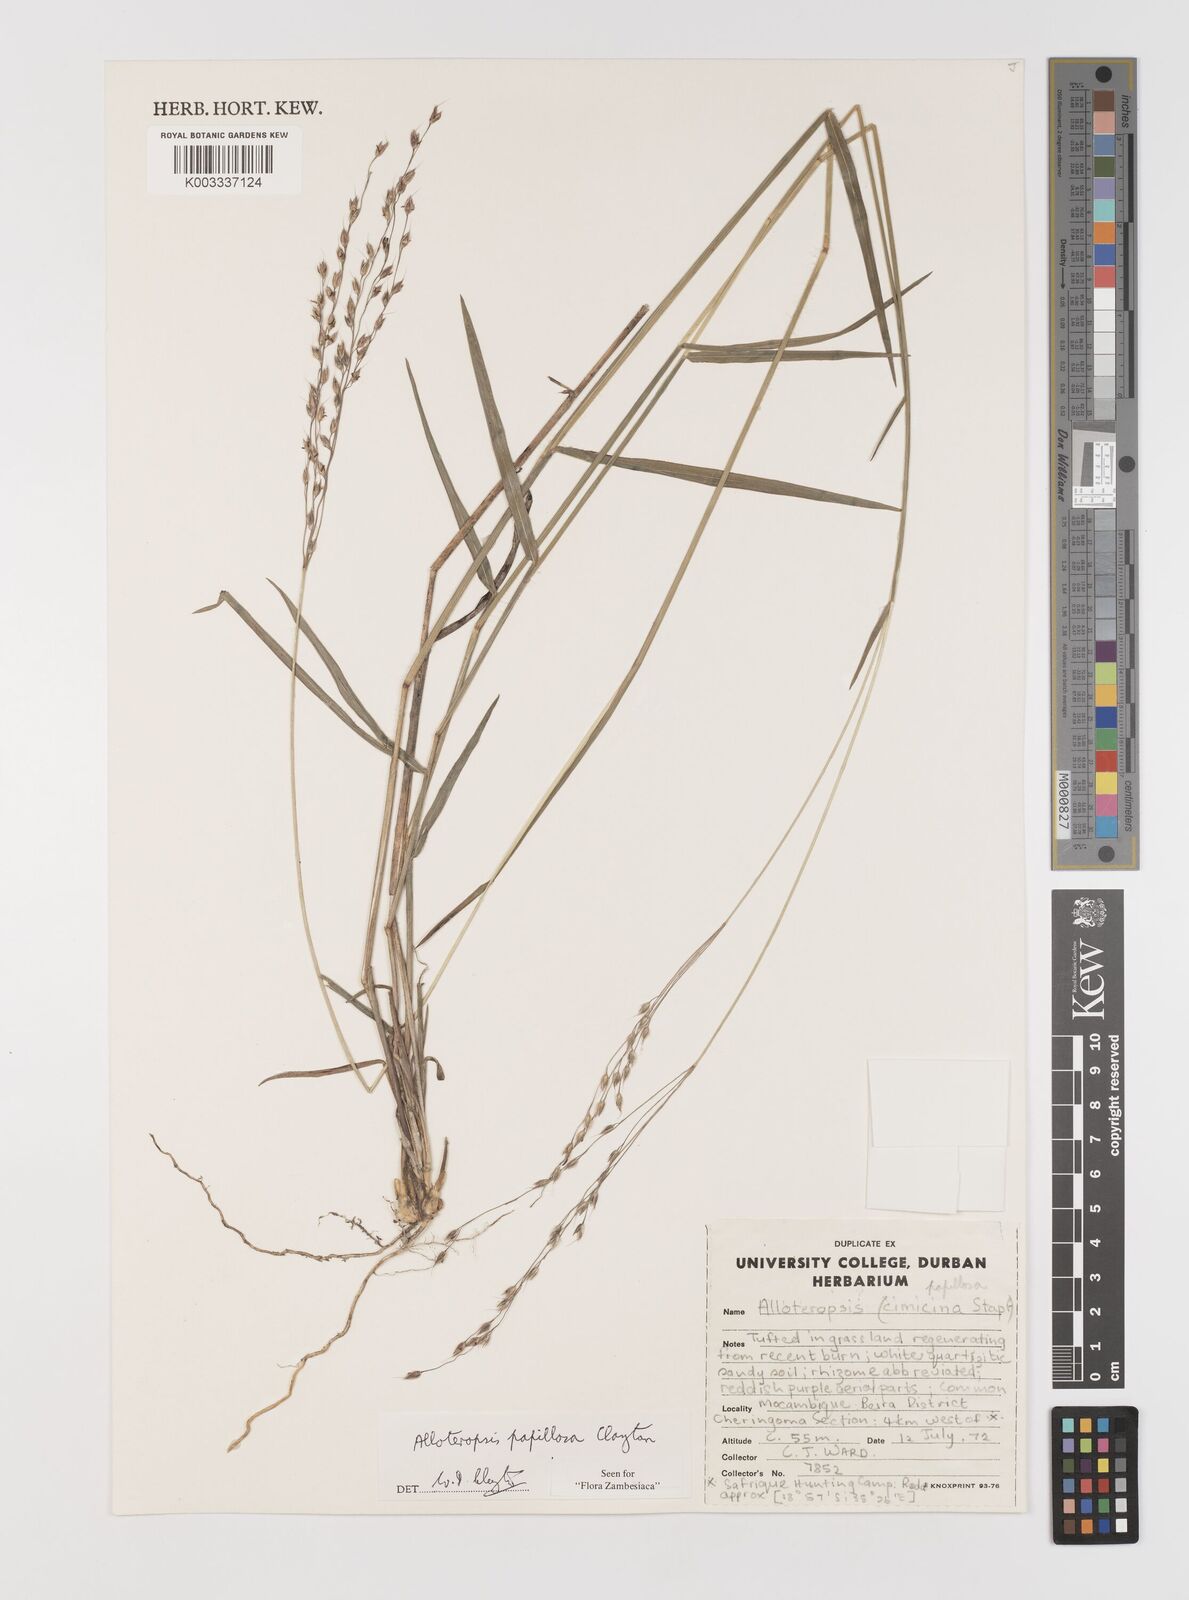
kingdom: Plantae
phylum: Tracheophyta
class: Liliopsida
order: Poales
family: Poaceae
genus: Alloteropsis
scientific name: Alloteropsis papillosa
